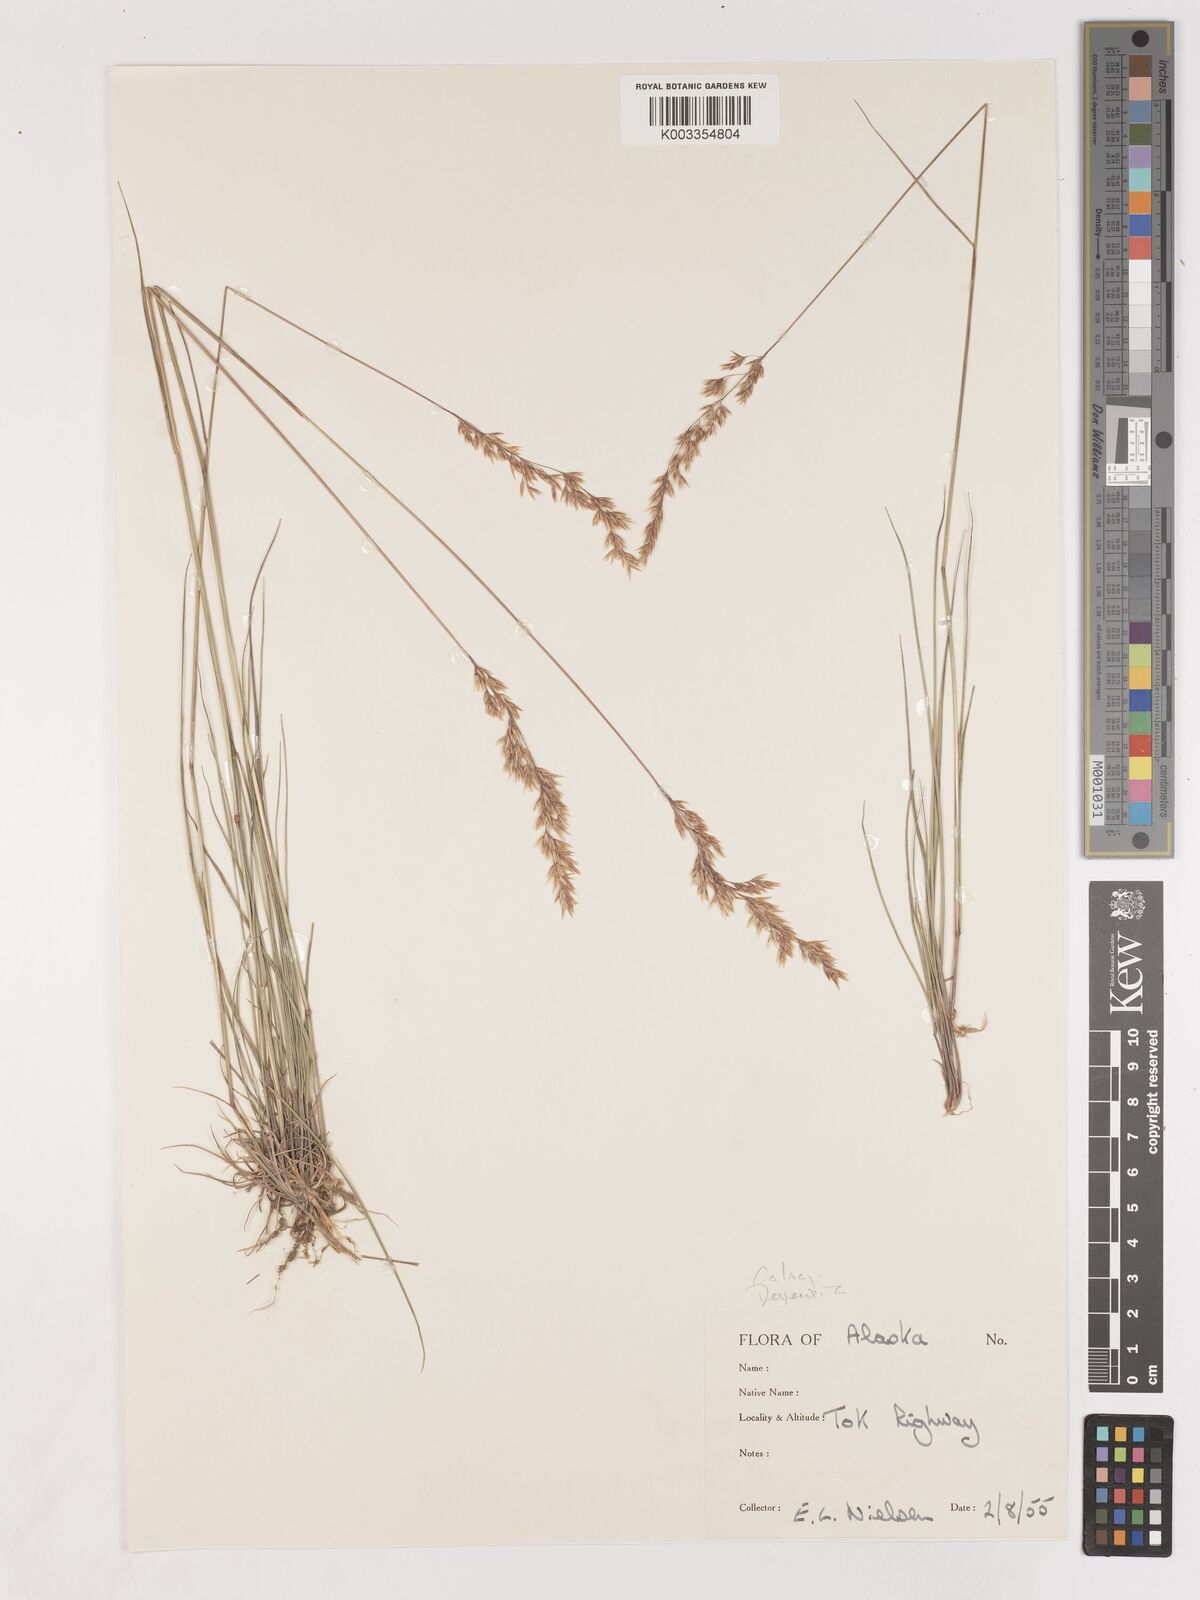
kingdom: Plantae
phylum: Tracheophyta
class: Liliopsida
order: Poales
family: Poaceae
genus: Calamagrostis
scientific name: Calamagrostis
